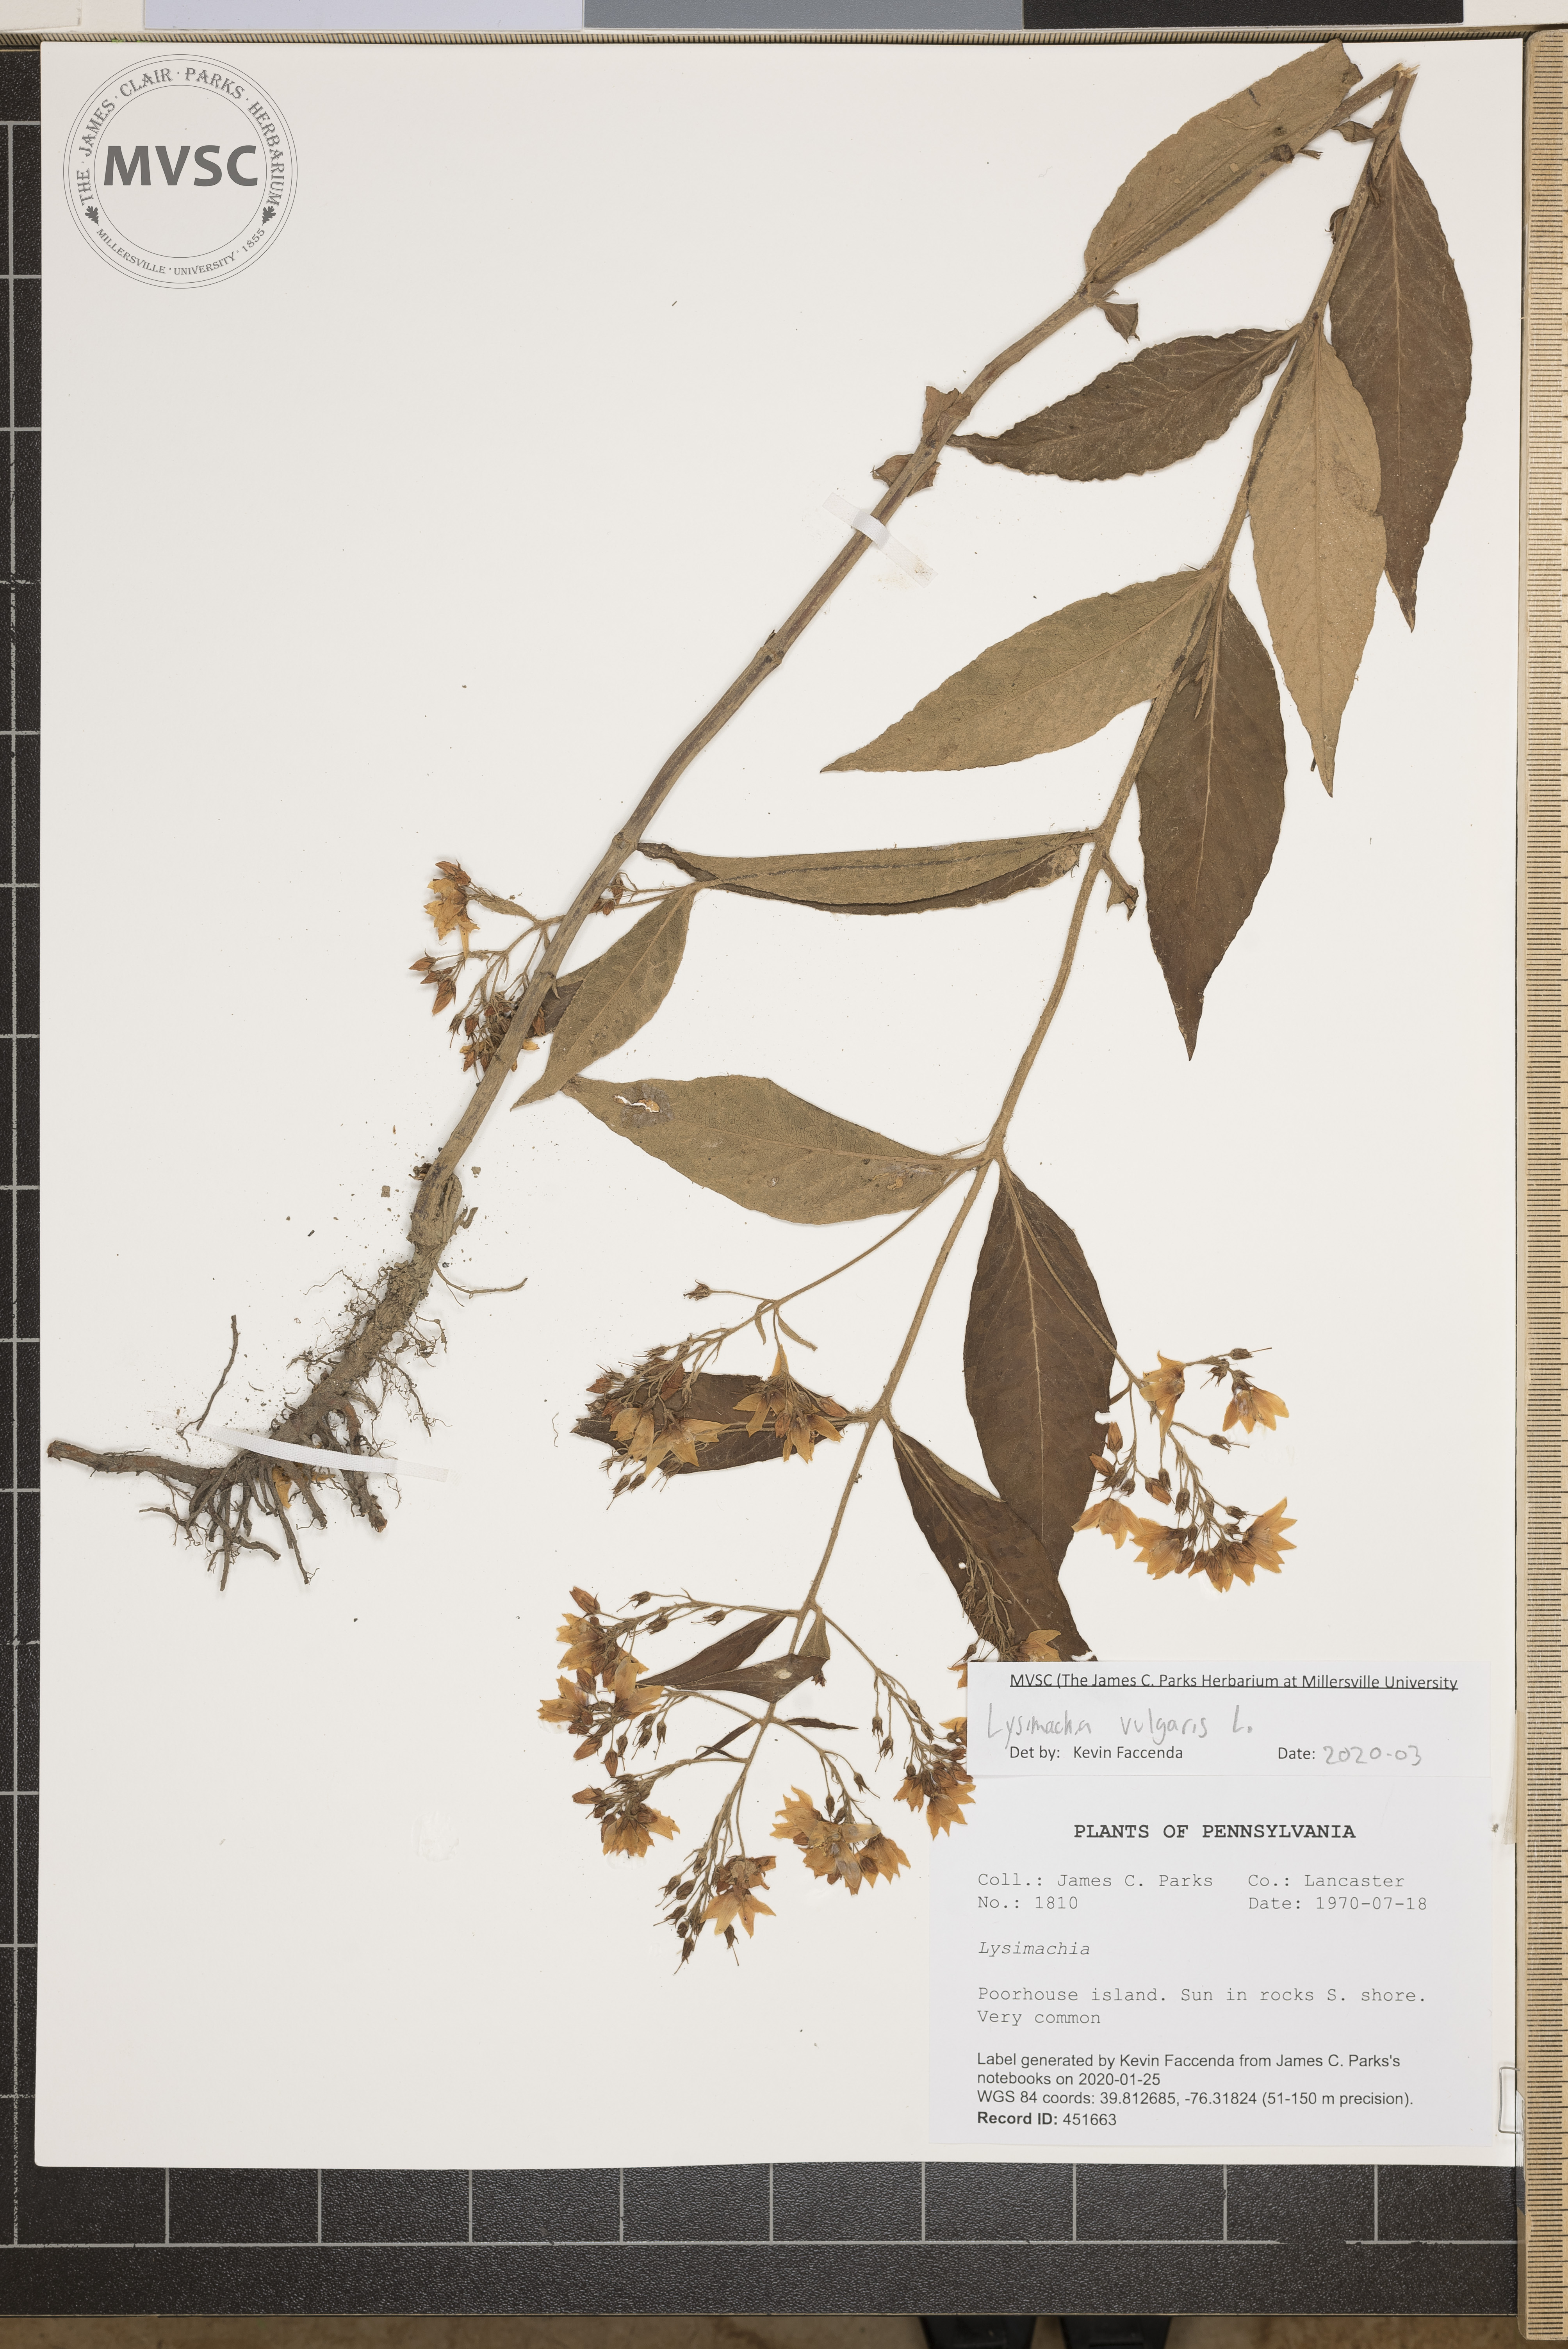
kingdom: Plantae
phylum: Tracheophyta
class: Magnoliopsida
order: Ericales
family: Primulaceae
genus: Lysimachia
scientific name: Lysimachia vulgaris
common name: Yellow loosestrife
